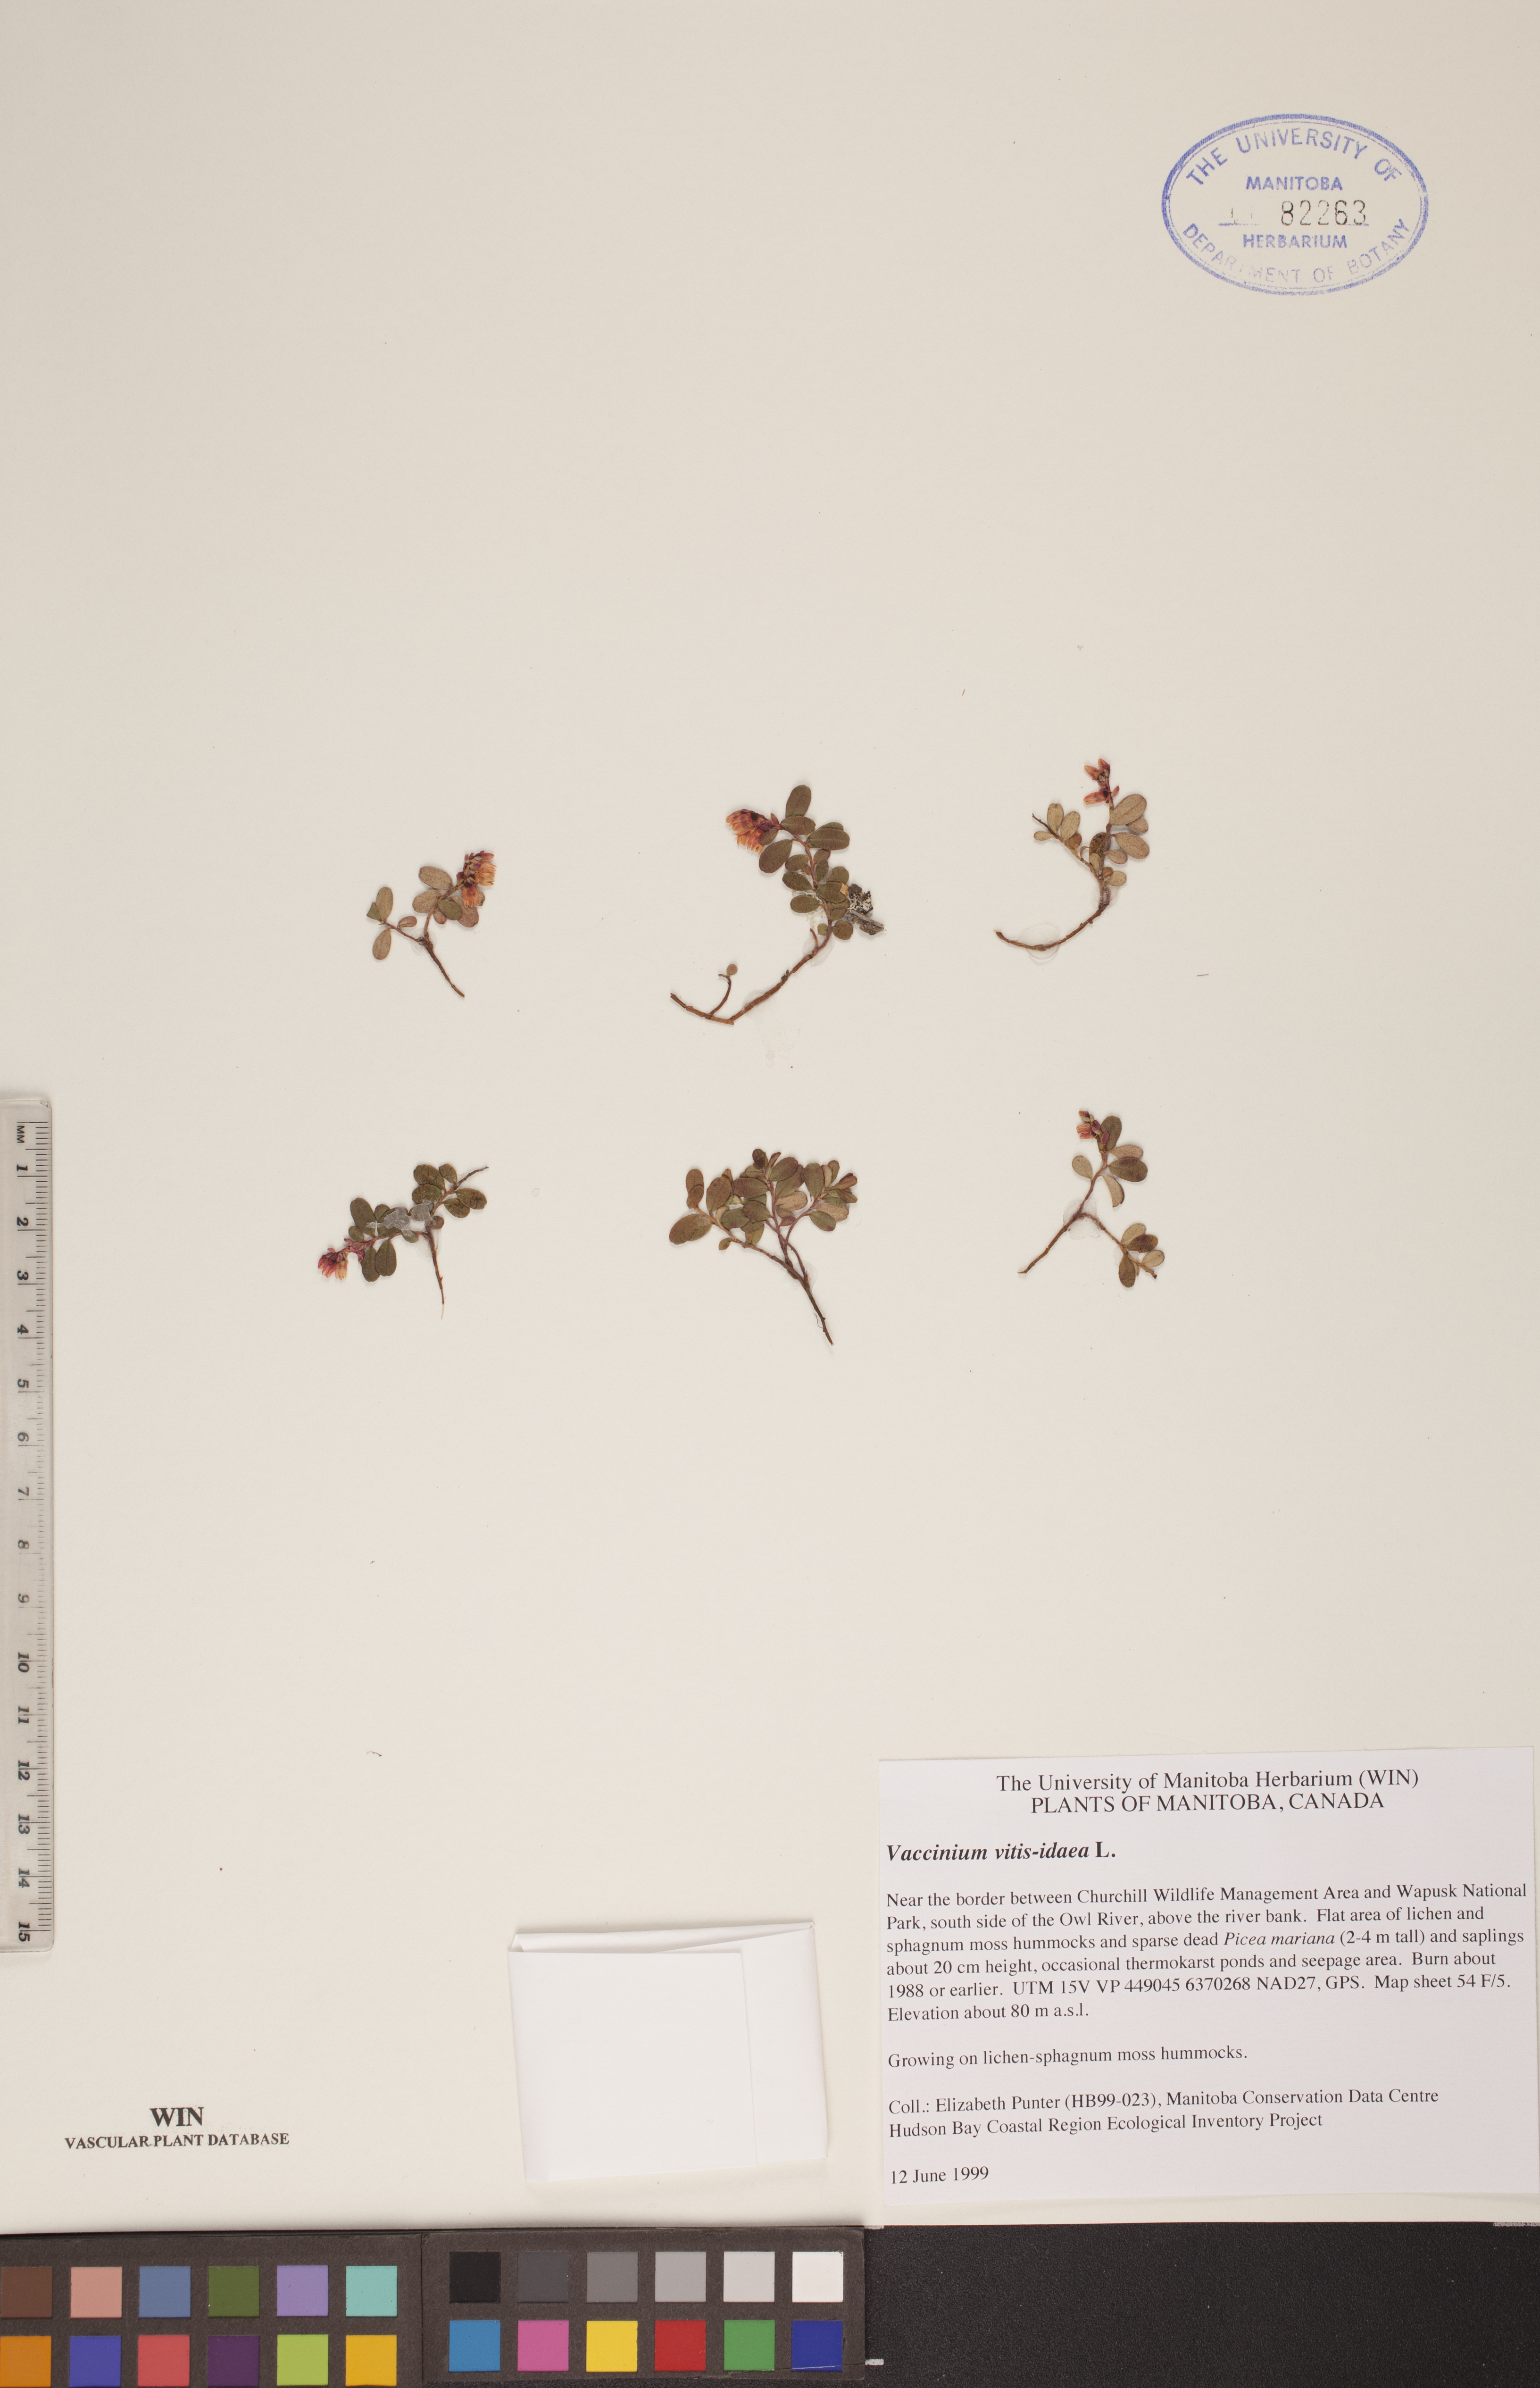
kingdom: Plantae
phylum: Tracheophyta
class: Magnoliopsida
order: Ericales
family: Ericaceae
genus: Vaccinium
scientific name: Vaccinium vitis-idaea
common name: Cowberry
